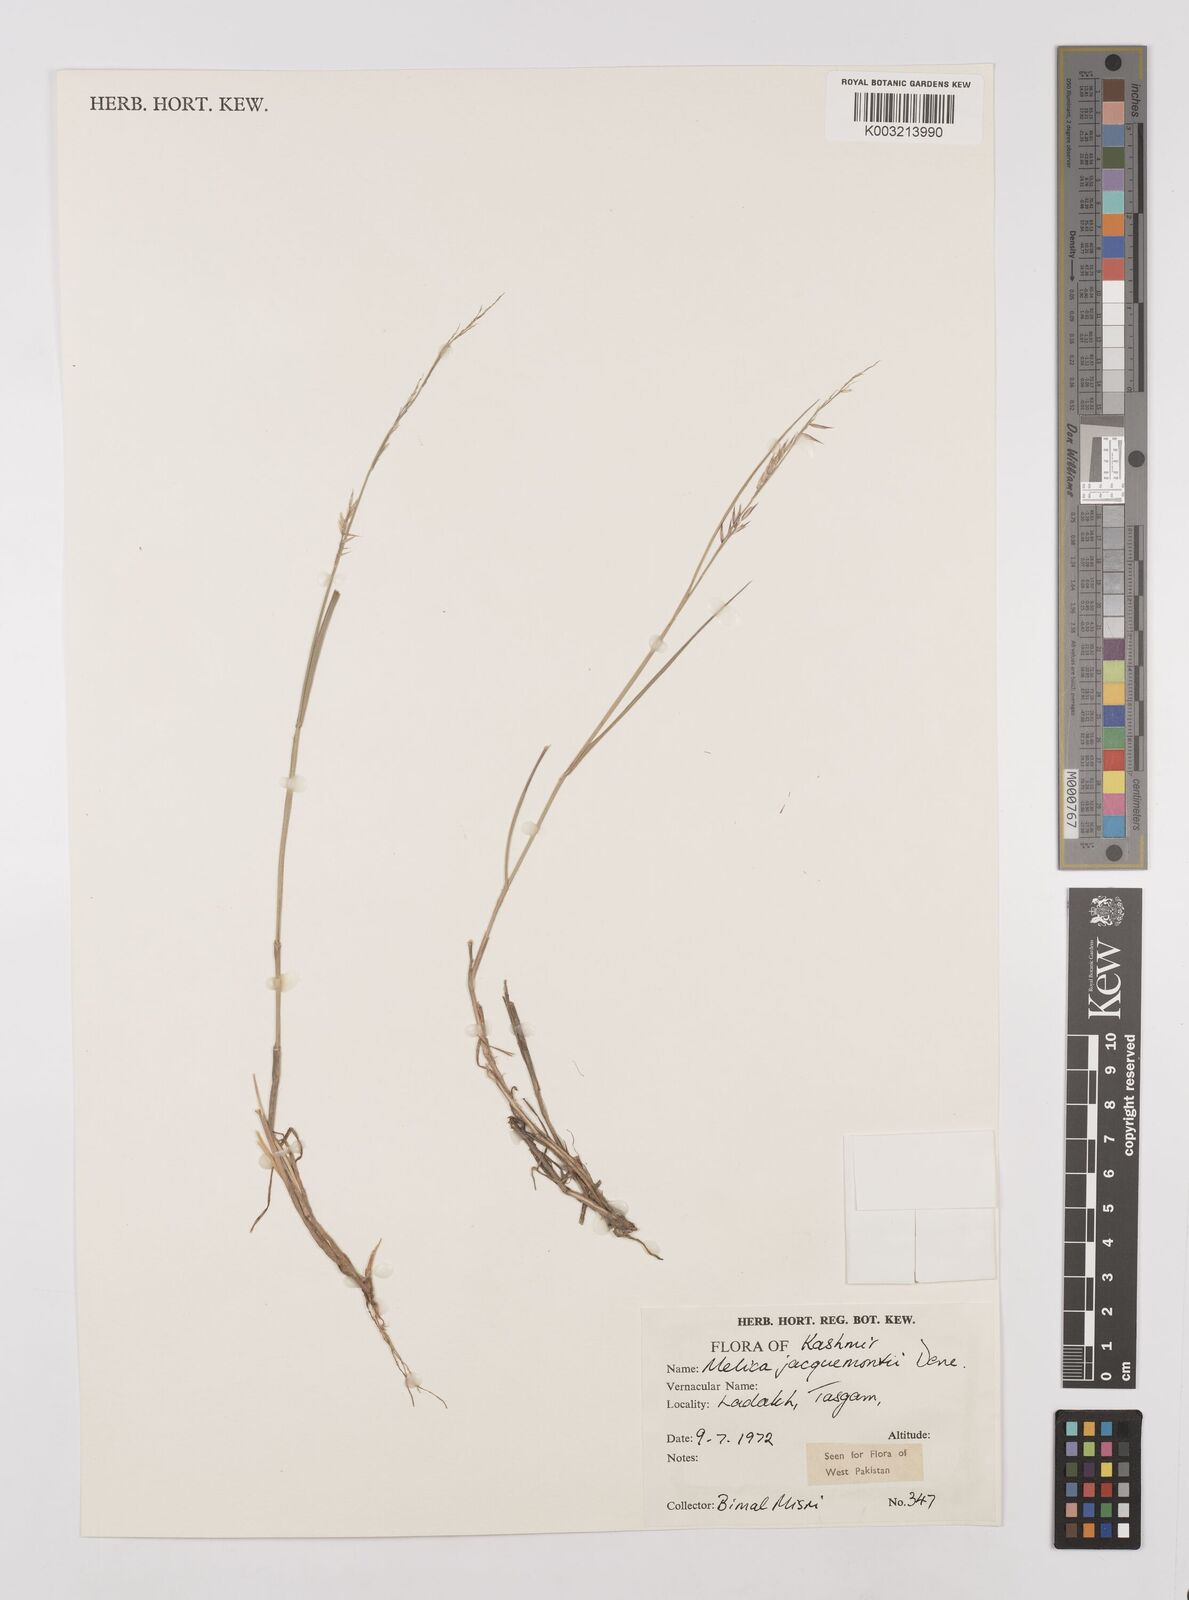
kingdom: Plantae
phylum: Tracheophyta
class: Liliopsida
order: Poales
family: Poaceae
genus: Melica
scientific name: Melica persica
